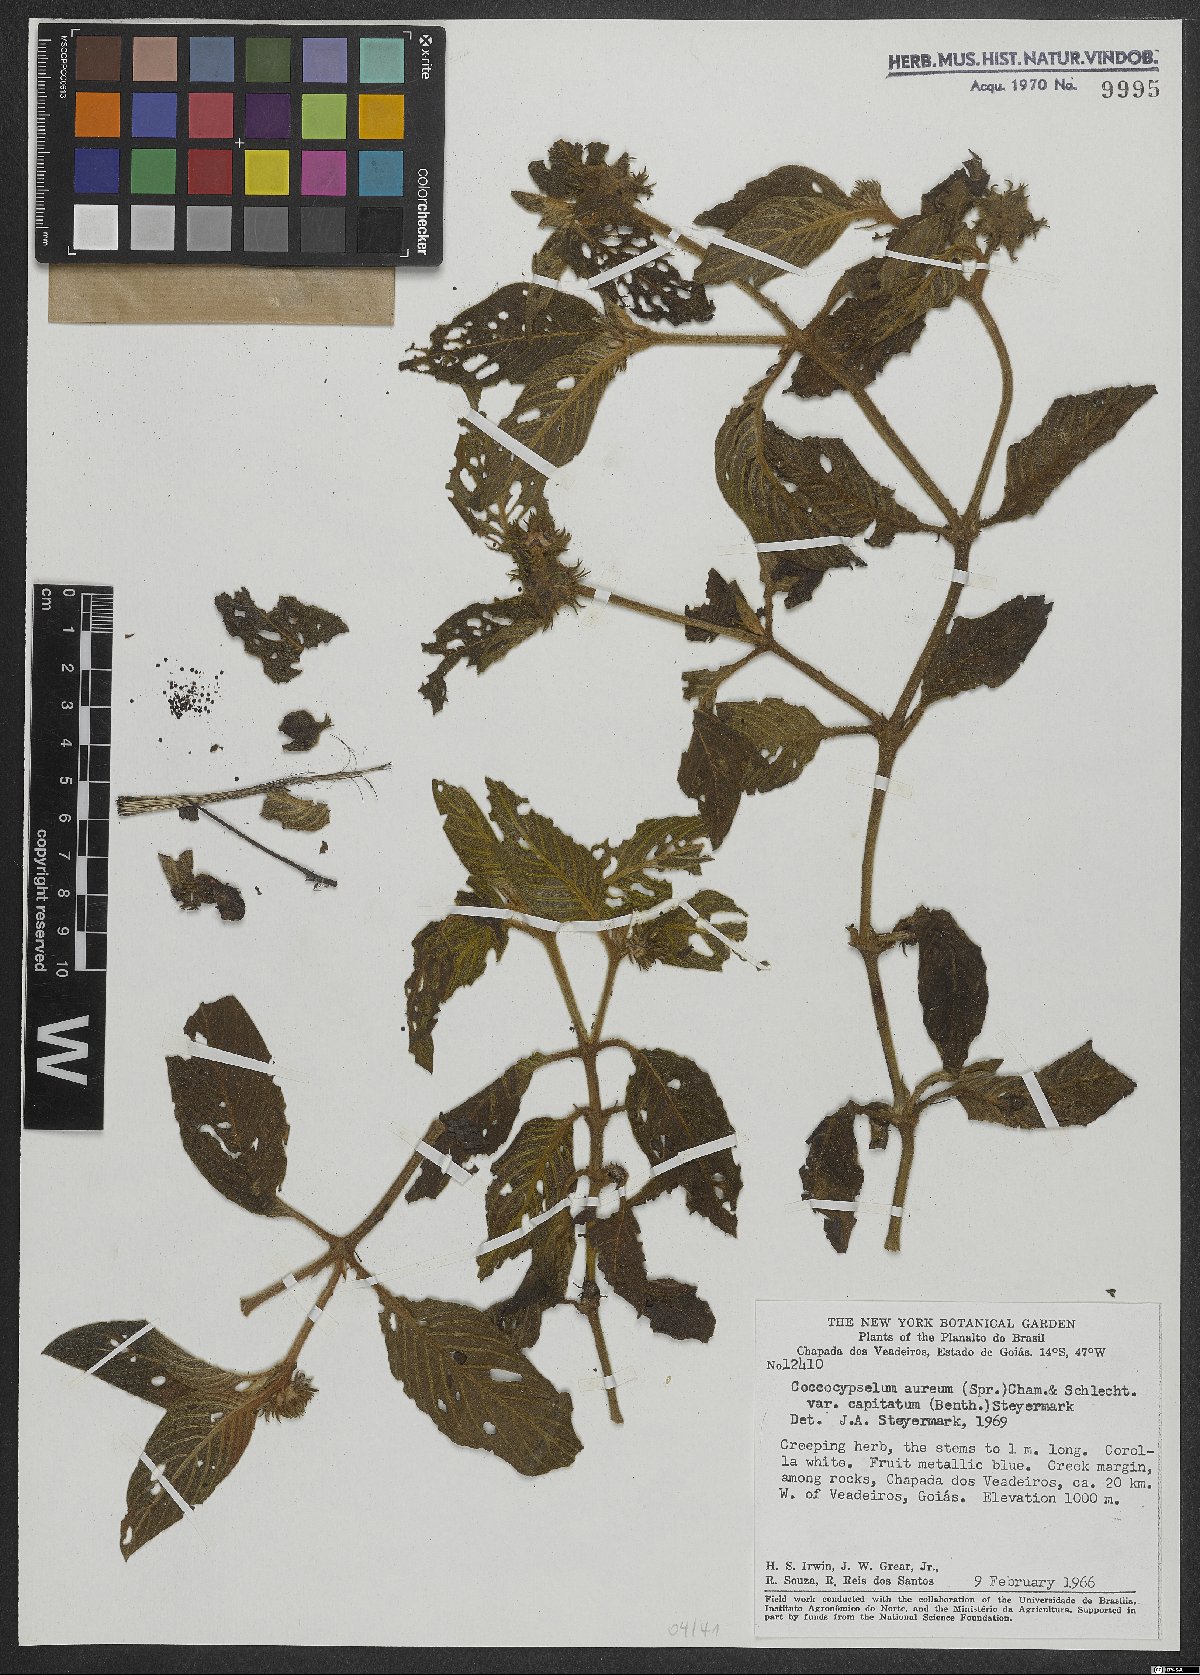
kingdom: Plantae
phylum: Tracheophyta
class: Magnoliopsida
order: Gentianales
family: Rubiaceae
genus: Coccocypselum
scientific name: Coccocypselum aureum
